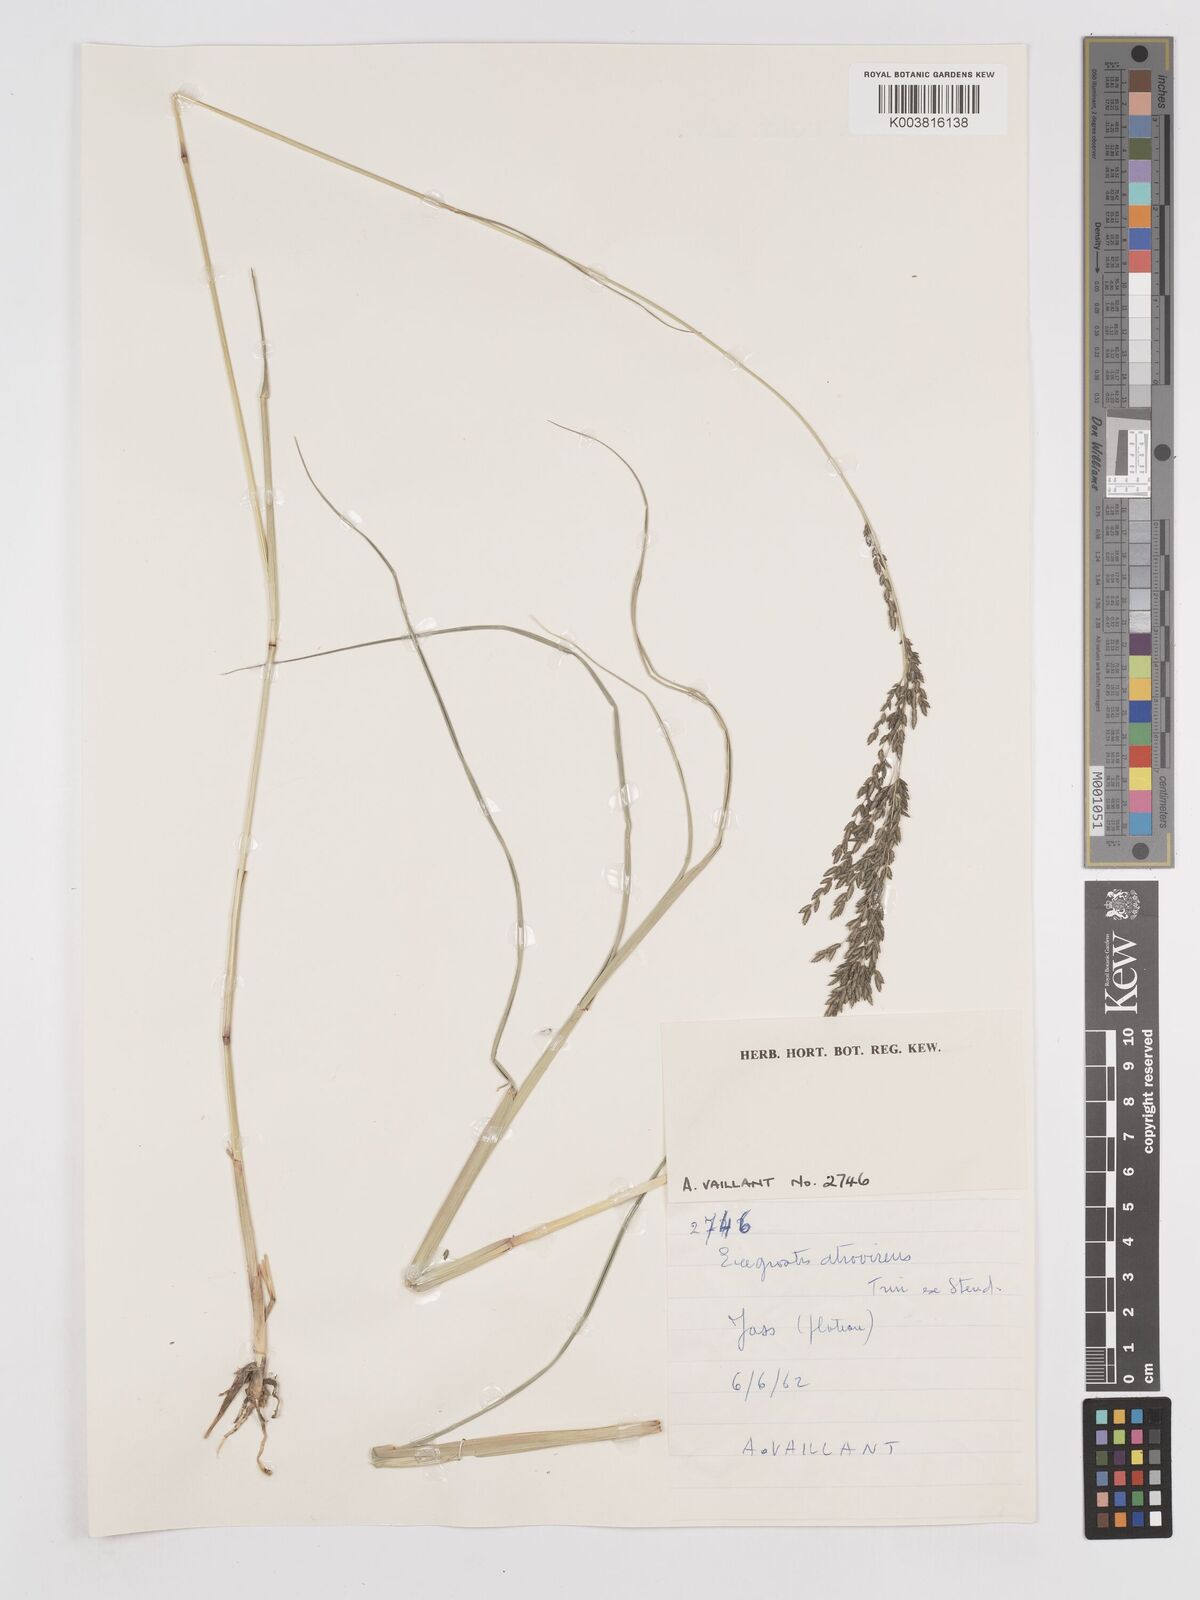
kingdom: Plantae
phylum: Tracheophyta
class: Liliopsida
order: Poales
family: Poaceae
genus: Eragrostis
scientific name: Eragrostis atrovirens
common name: Thalia lovegrass
